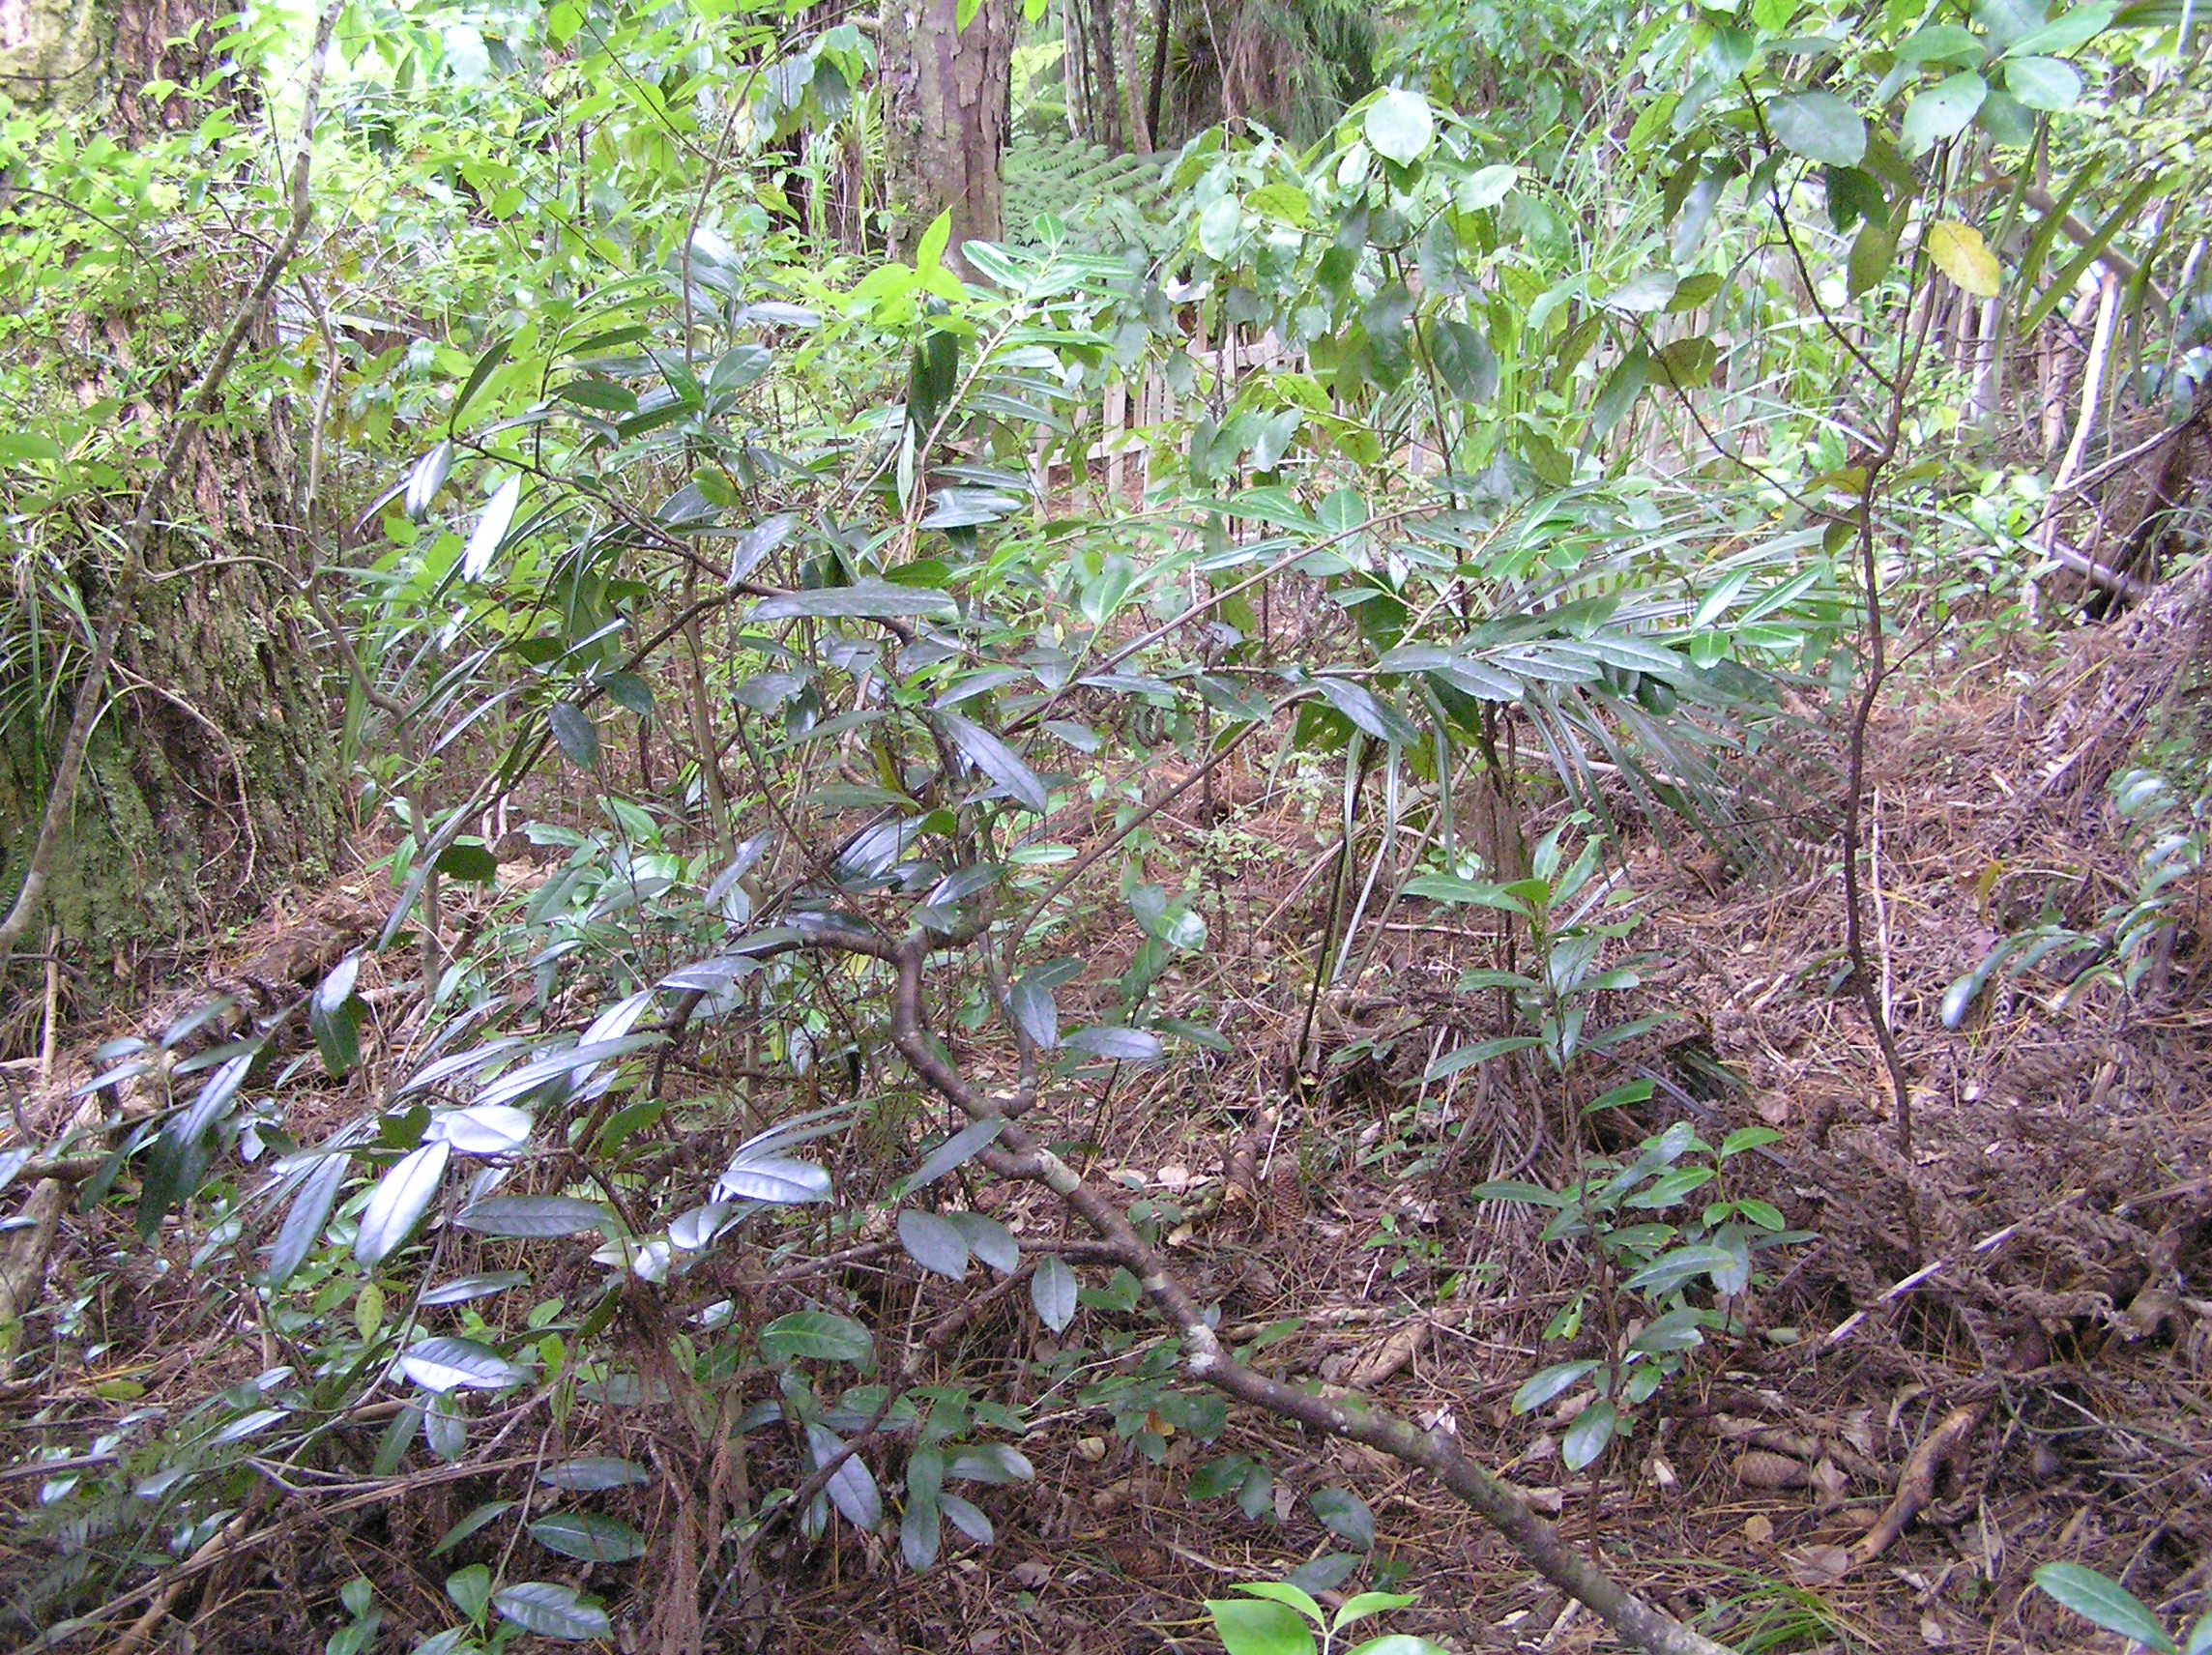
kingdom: Plantae
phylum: Tracheophyta
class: Magnoliopsida
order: Rosales
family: Rosaceae
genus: Prunus
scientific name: Prunus laurocerasus
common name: Cherry laurel
